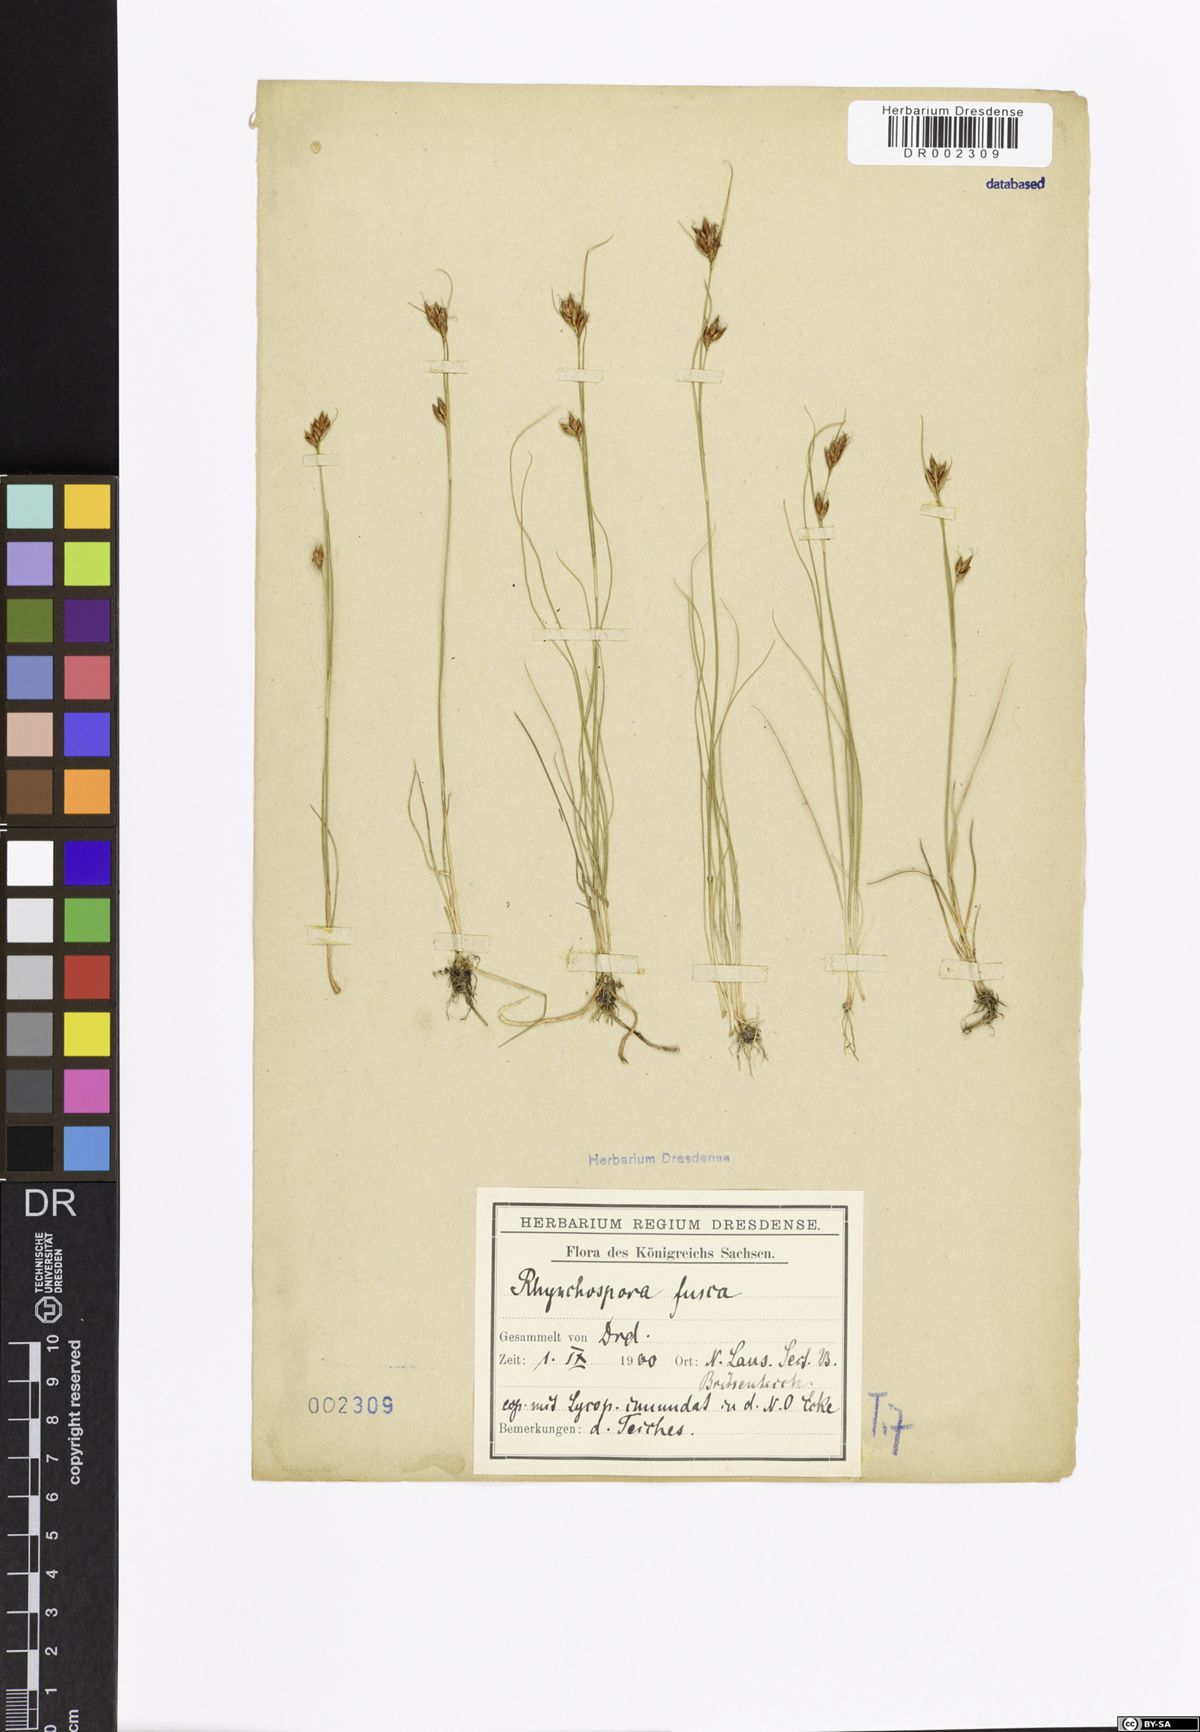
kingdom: Plantae
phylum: Tracheophyta
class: Liliopsida
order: Poales
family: Cyperaceae
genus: Rhynchospora
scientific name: Rhynchospora fusca
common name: Brown beak-sedge
